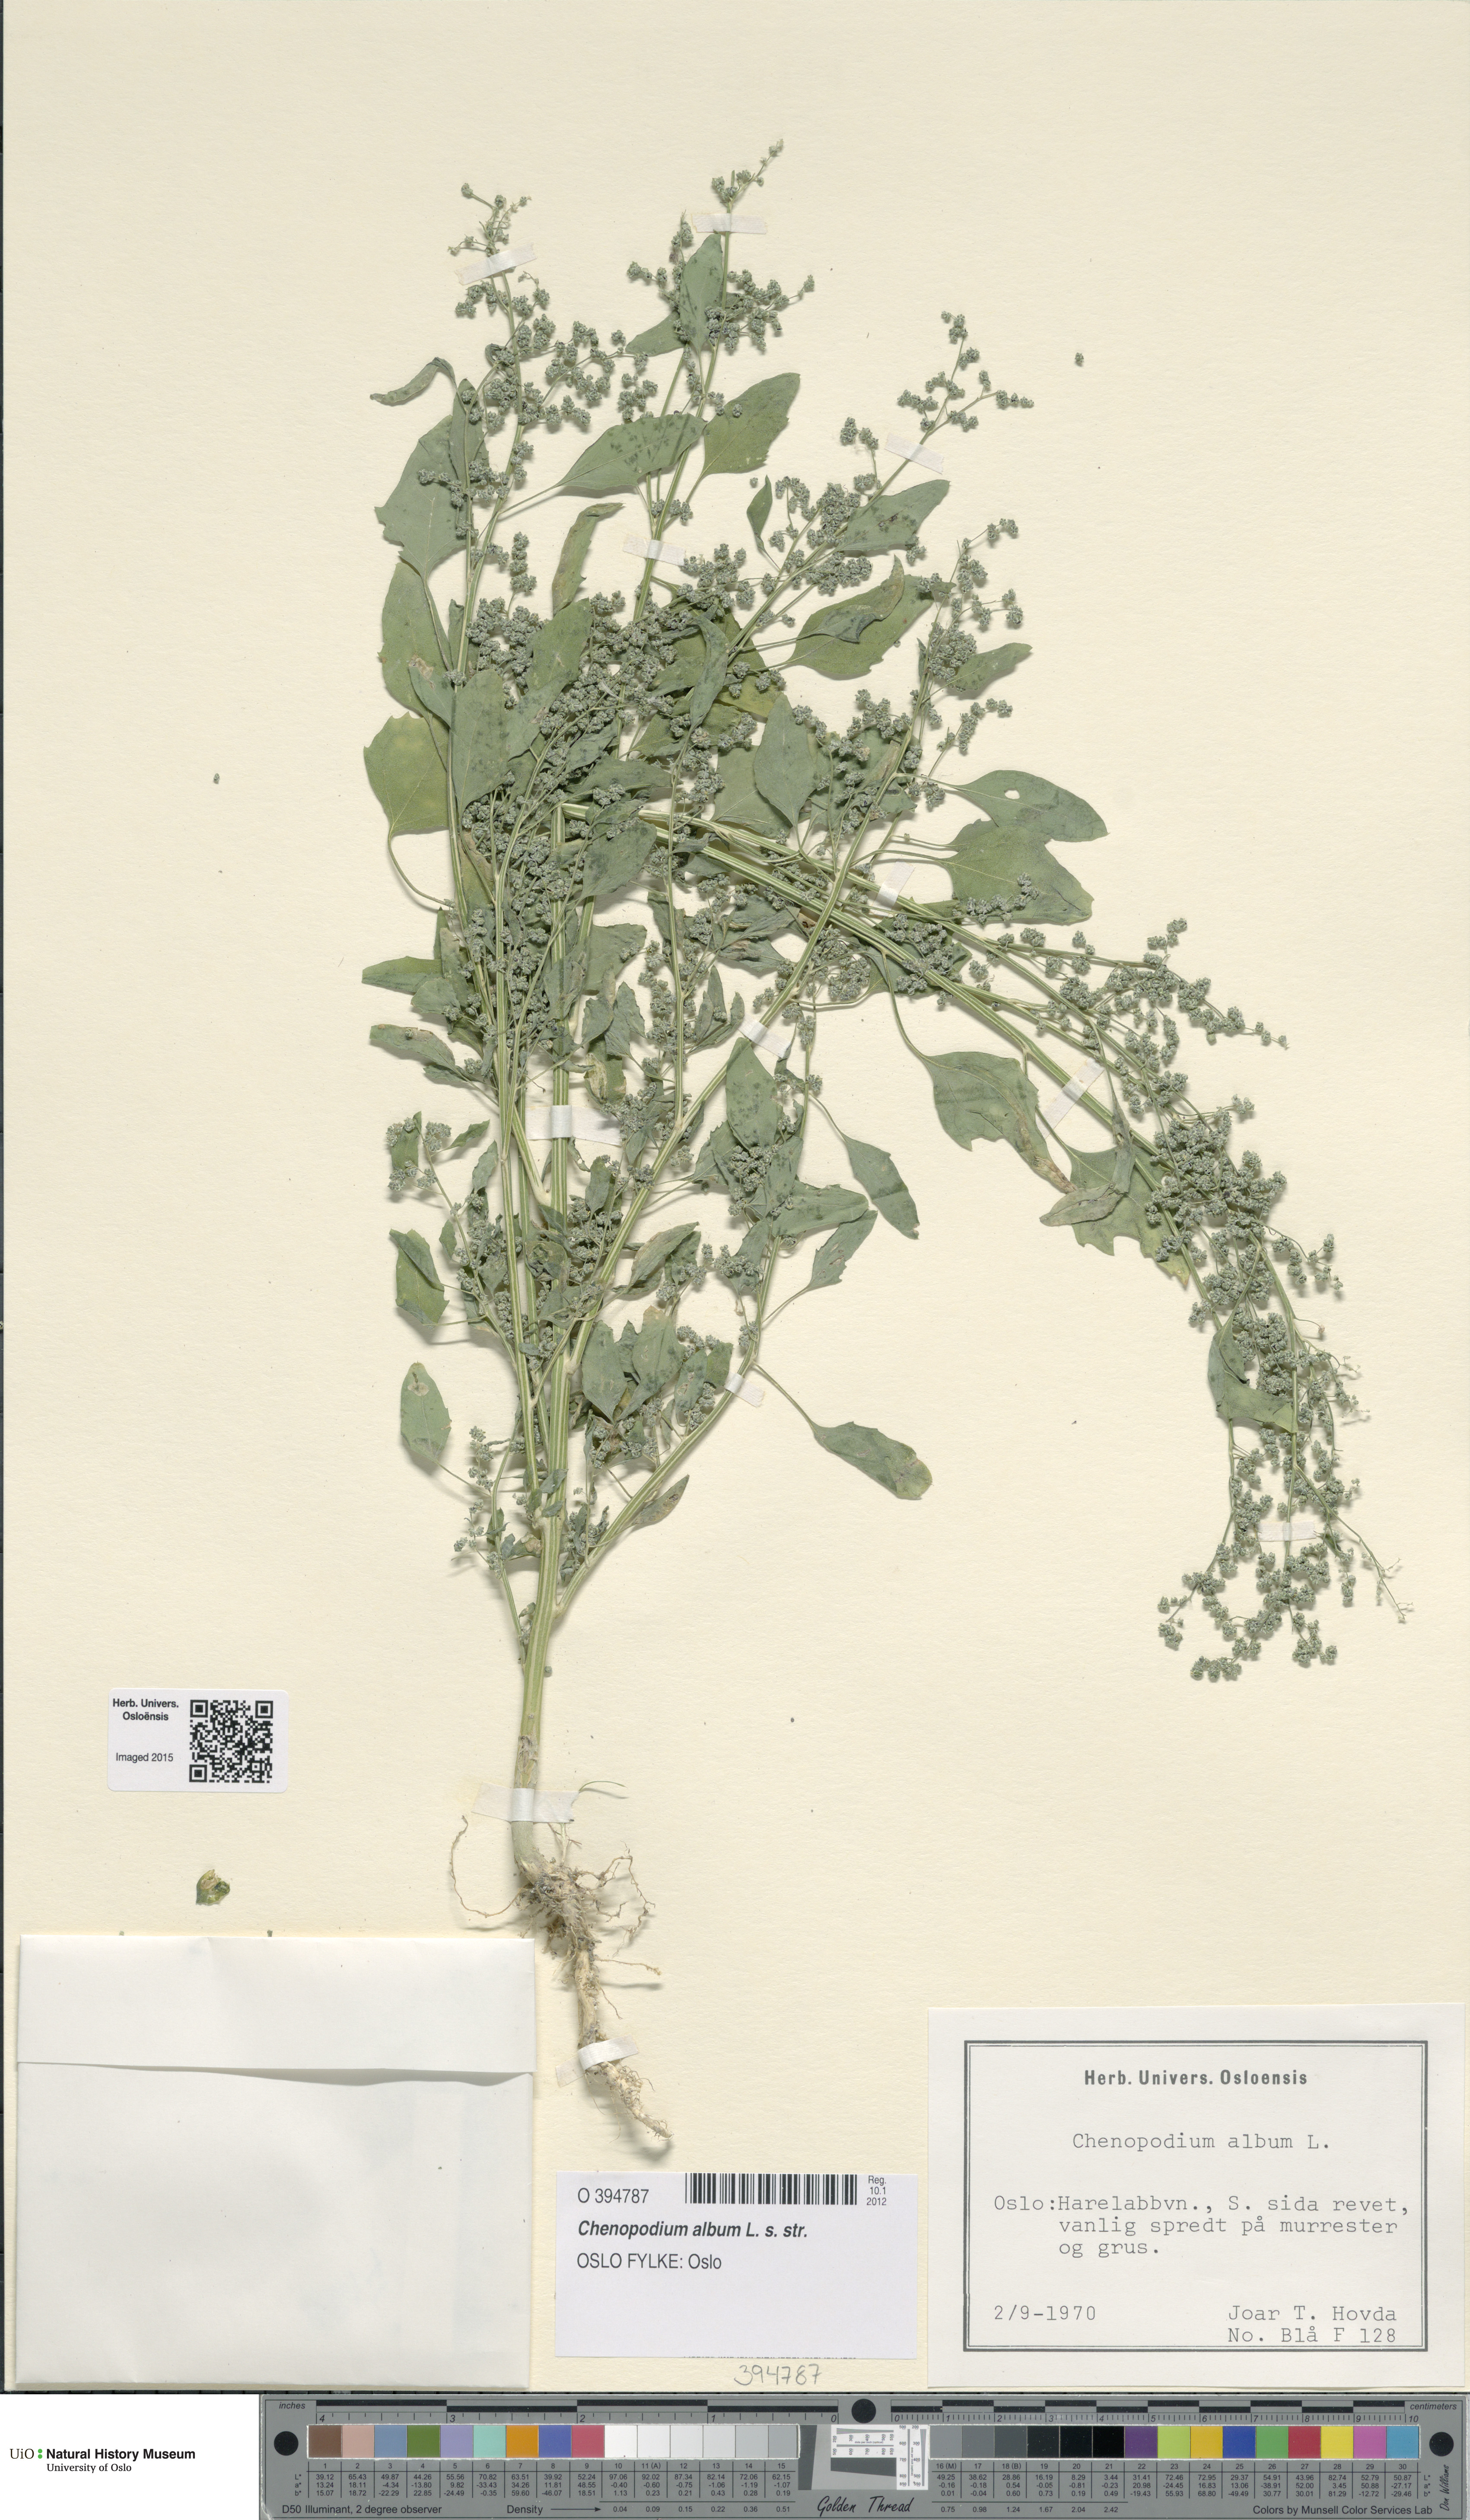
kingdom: Plantae
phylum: Tracheophyta
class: Magnoliopsida
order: Caryophyllales
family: Amaranthaceae
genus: Chenopodium
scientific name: Chenopodium album
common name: Fat-hen
